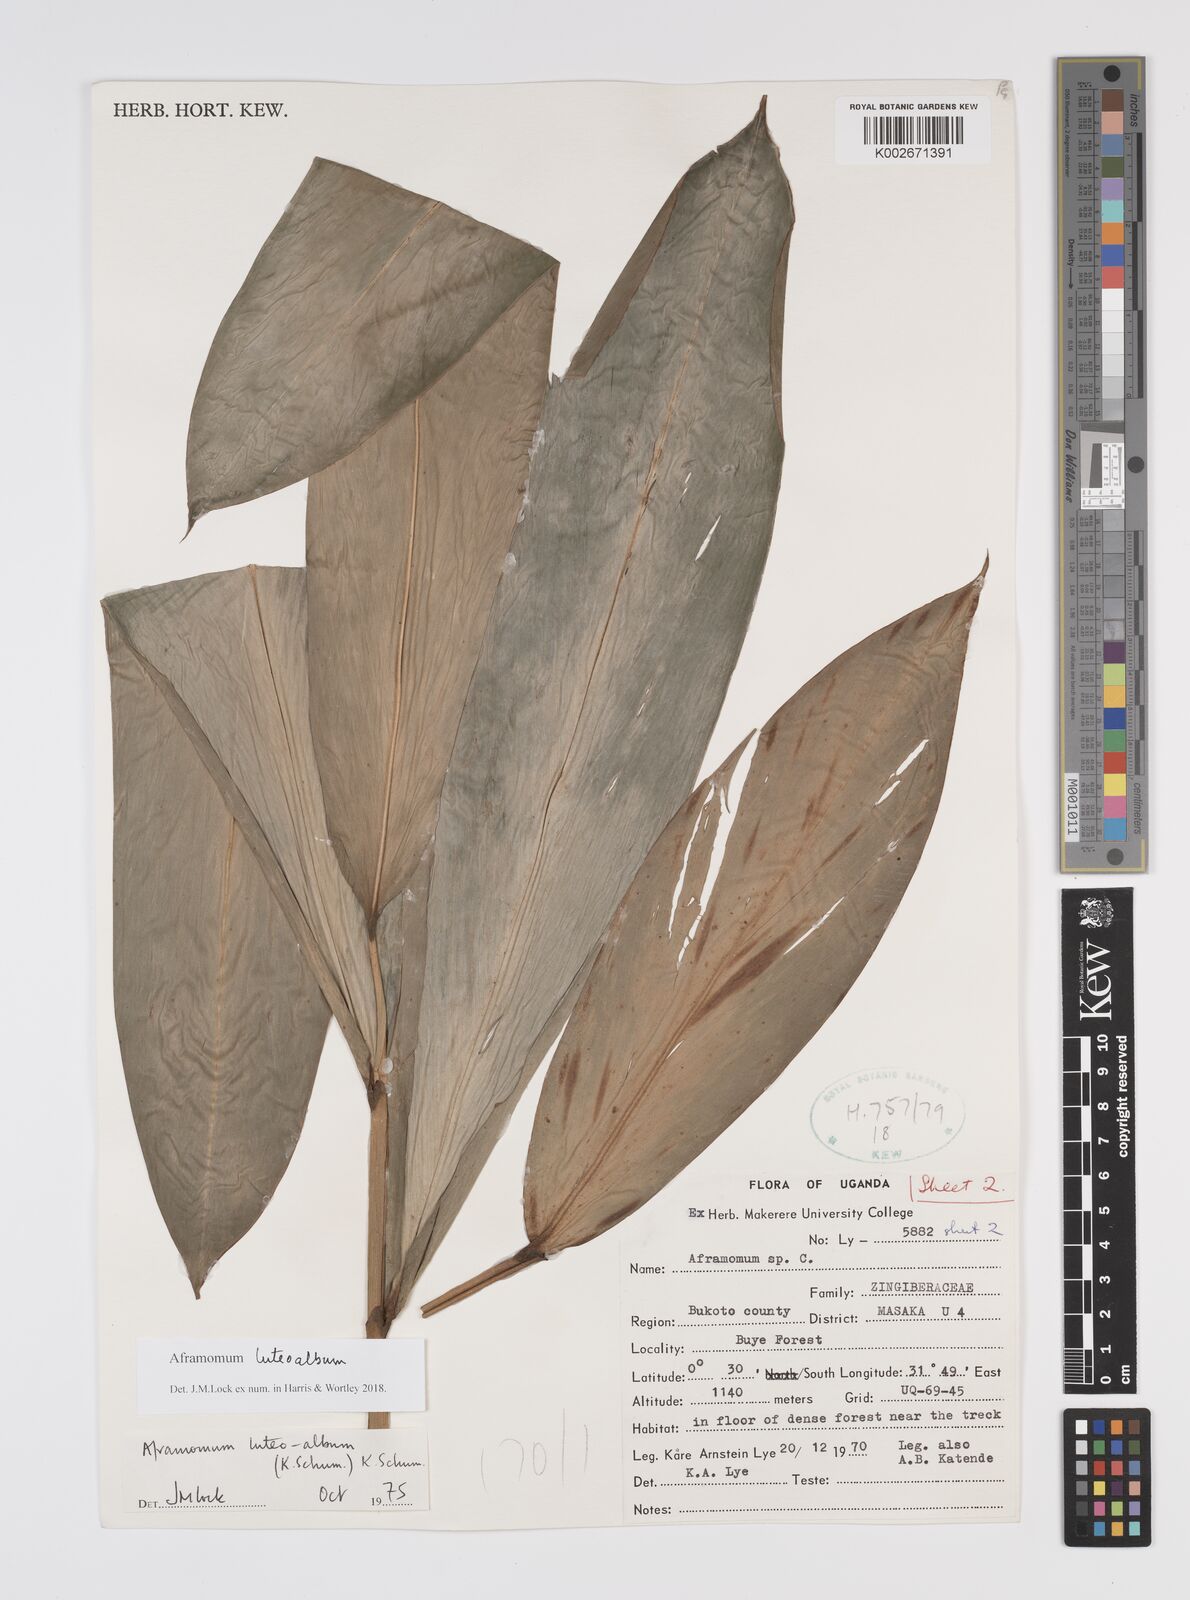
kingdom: Plantae
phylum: Tracheophyta
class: Liliopsida
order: Zingiberales
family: Zingiberaceae
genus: Aframomum
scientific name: Aframomum luteoalbum
